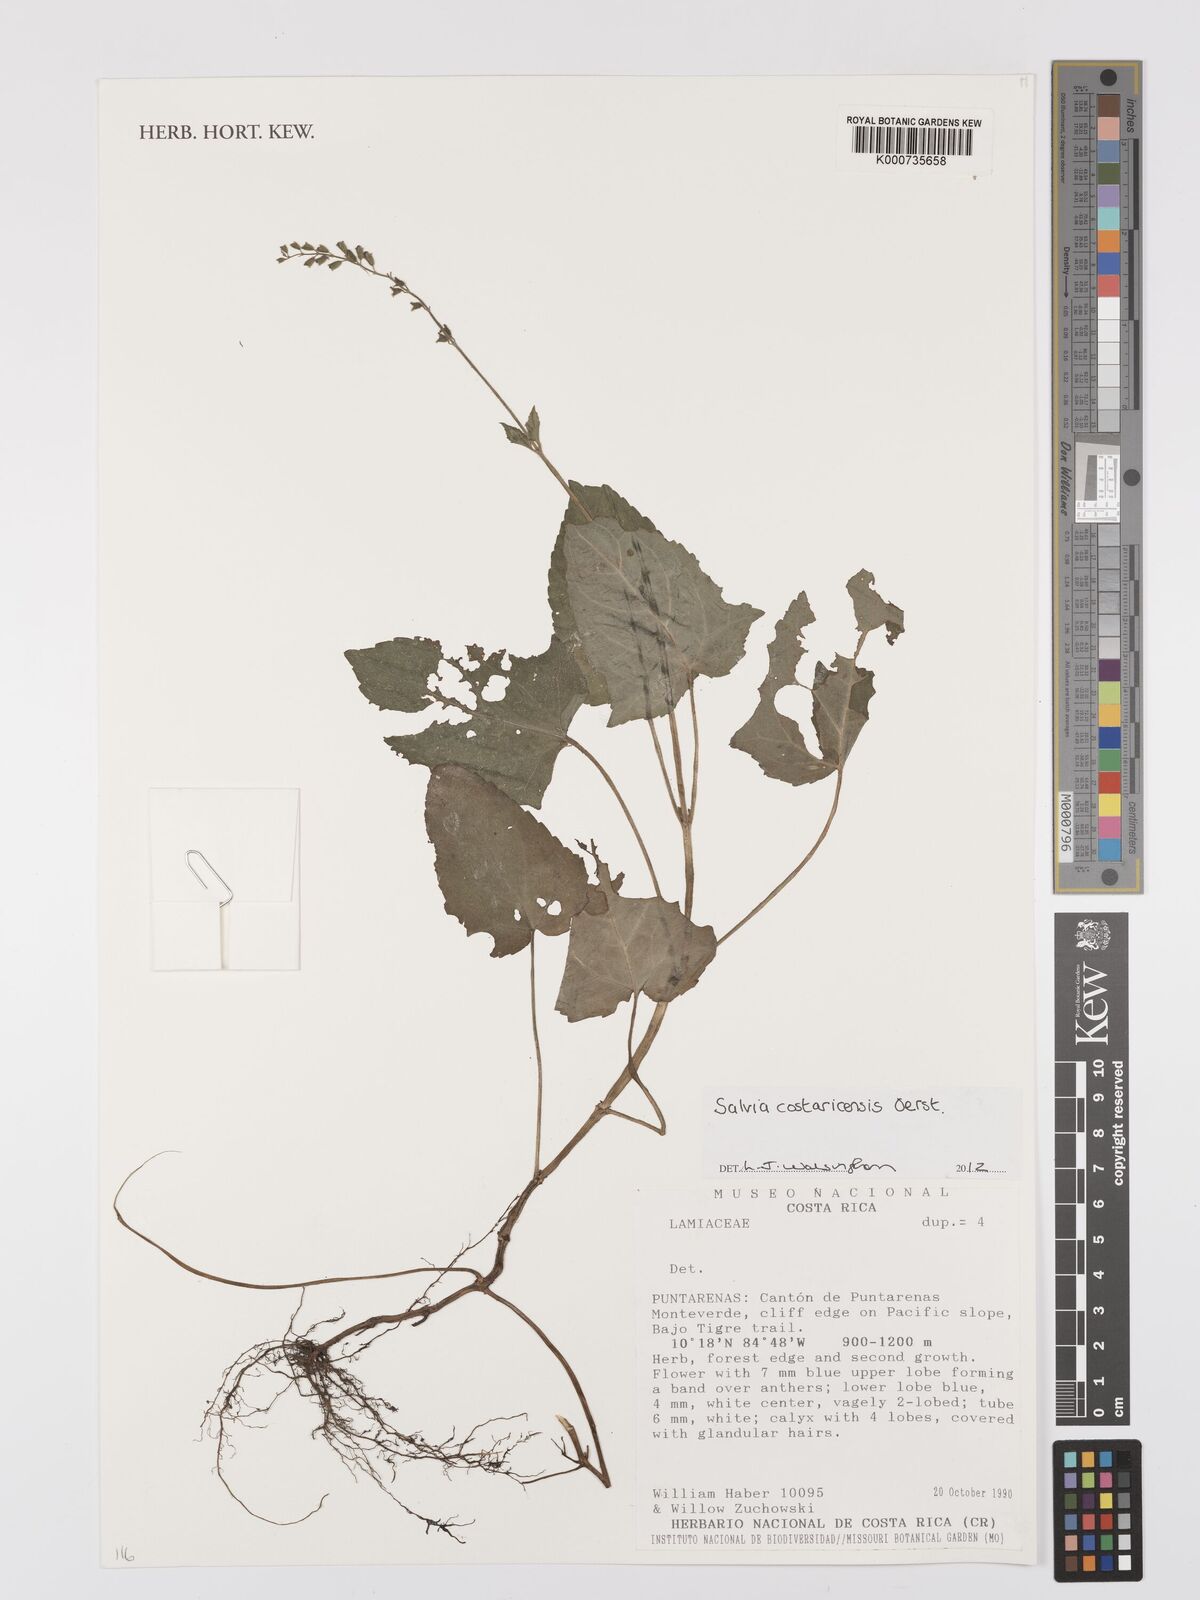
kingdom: Plantae
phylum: Tracheophyta
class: Magnoliopsida
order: Lamiales
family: Lamiaceae
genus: Salvia
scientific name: Salvia costaricensis
